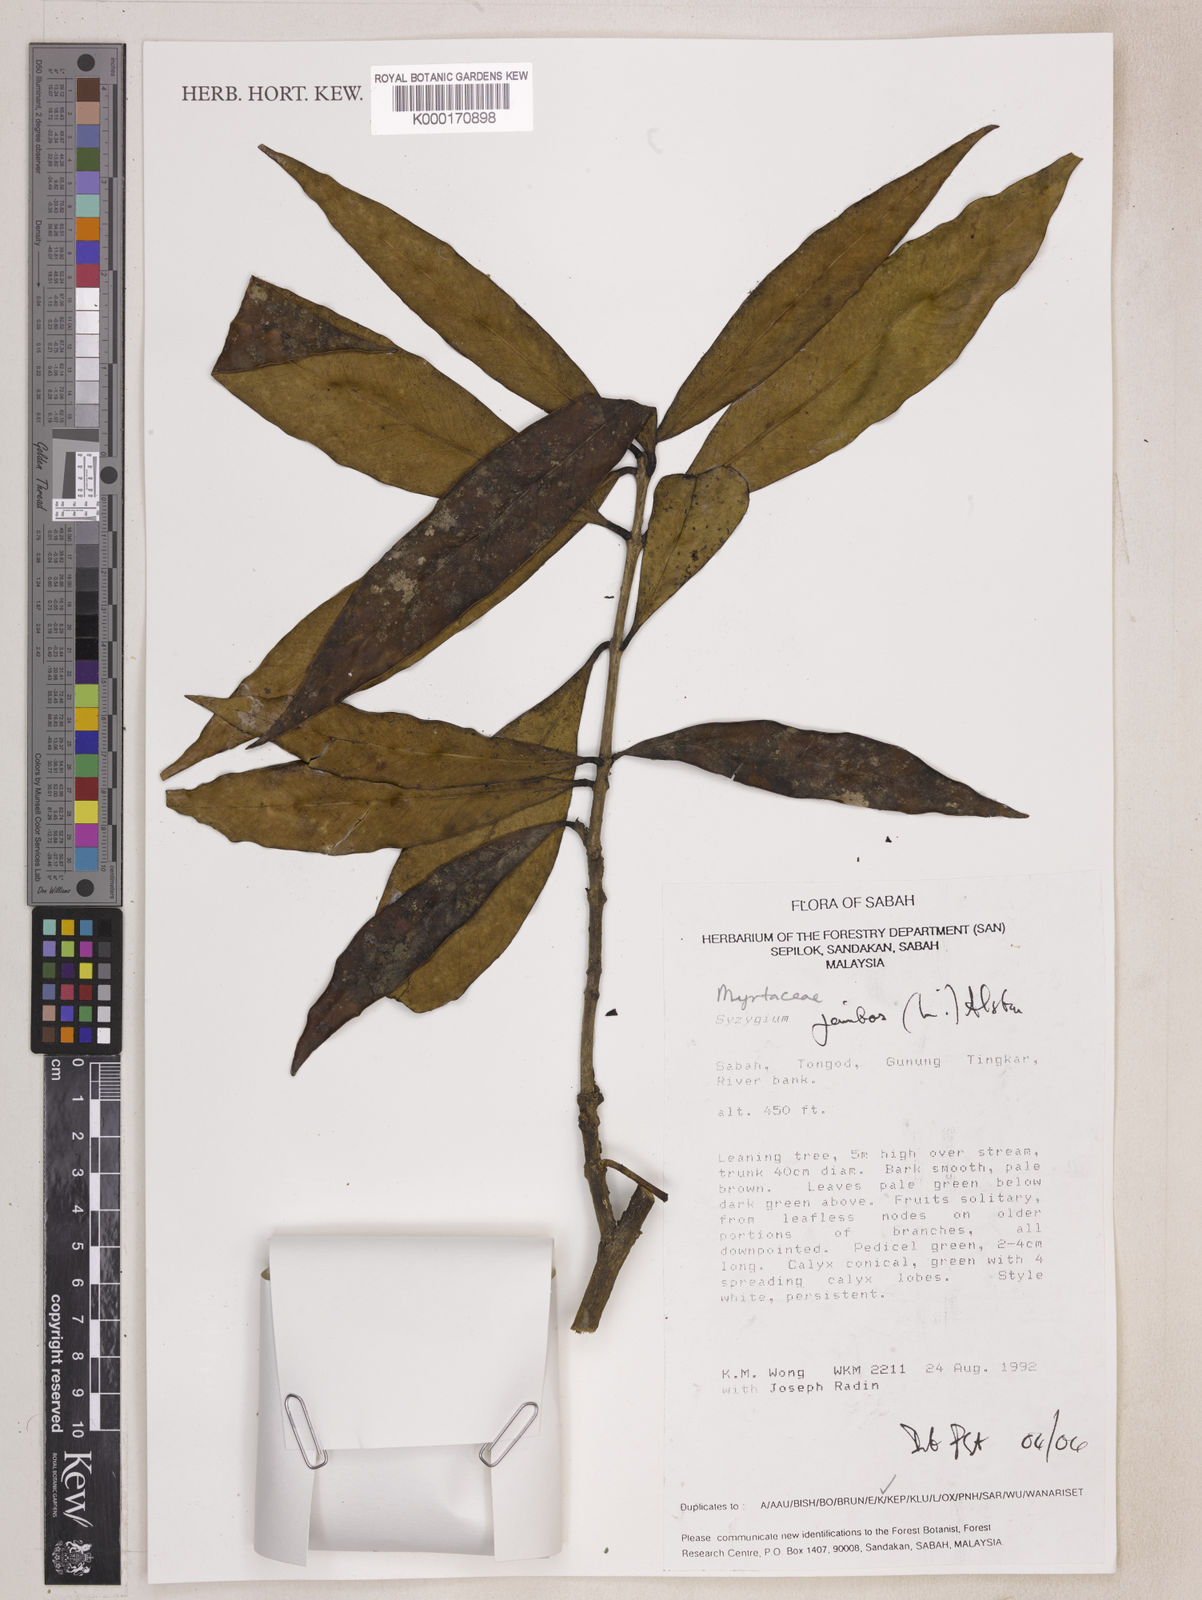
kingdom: Plantae
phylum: Tracheophyta
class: Magnoliopsida
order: Myrtales
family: Myrtaceae
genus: Syzygium
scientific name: Syzygium jambos
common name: Malabar plum
